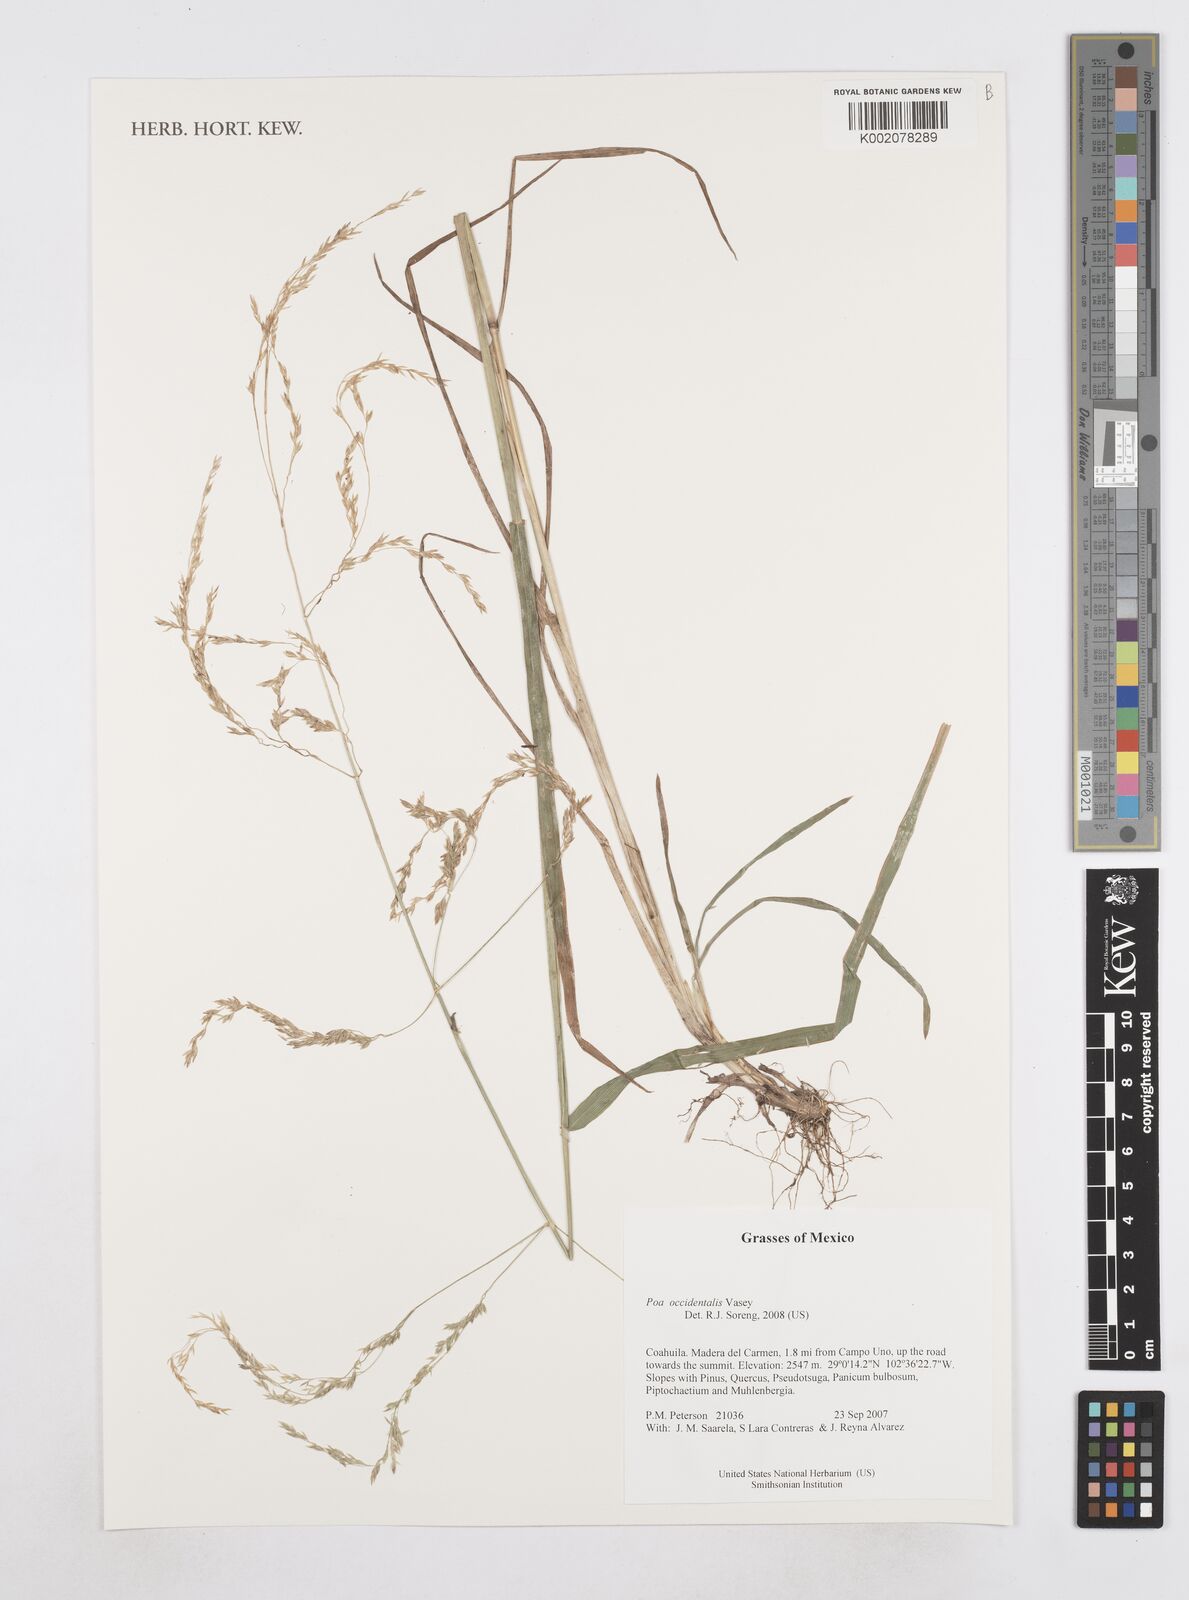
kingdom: Plantae
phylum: Tracheophyta
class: Liliopsida
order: Poales
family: Poaceae
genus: Poa
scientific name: Poa occidentalis
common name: New mexican bluegrass
